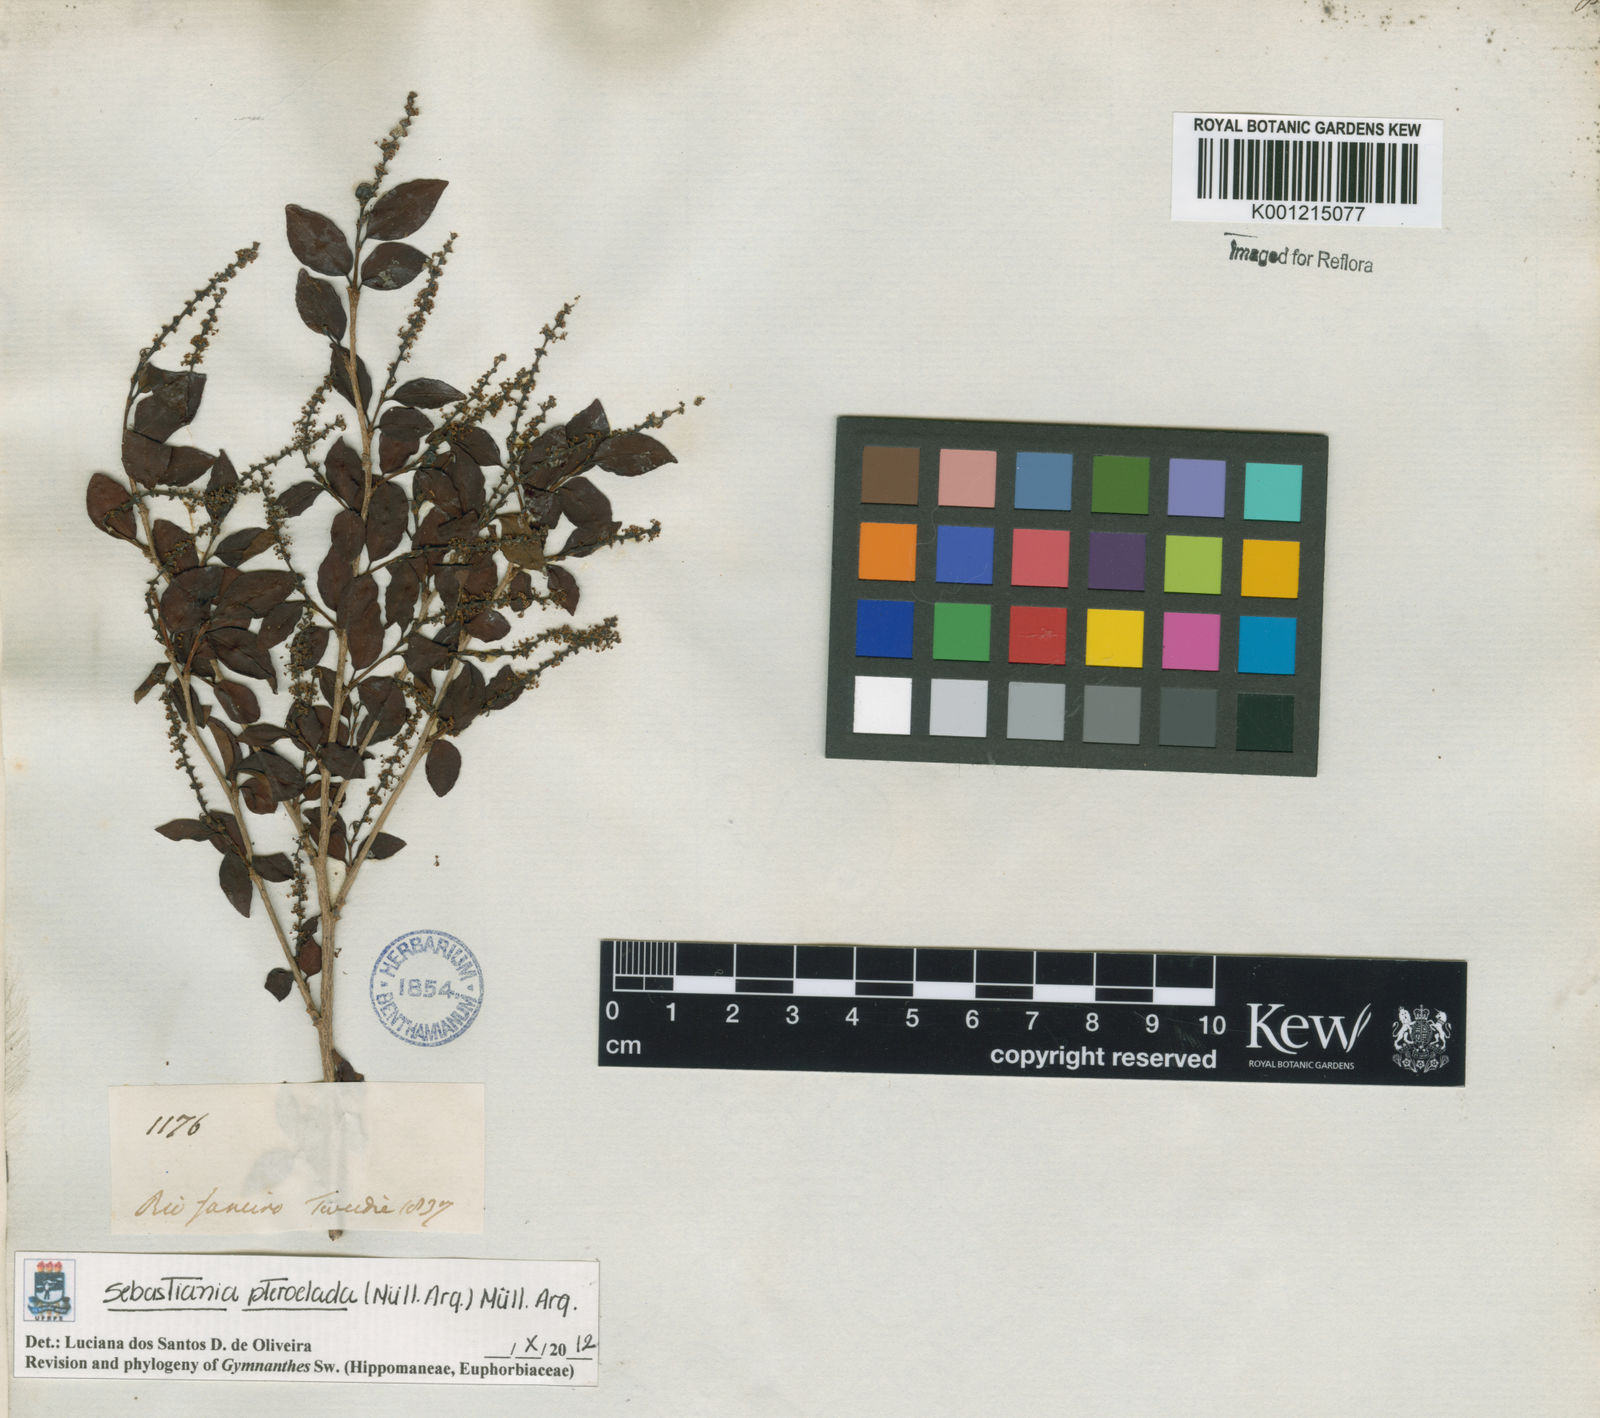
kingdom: Plantae
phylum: Tracheophyta
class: Magnoliopsida
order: Malpighiales
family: Euphorbiaceae
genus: Sebastiania
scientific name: Sebastiania
